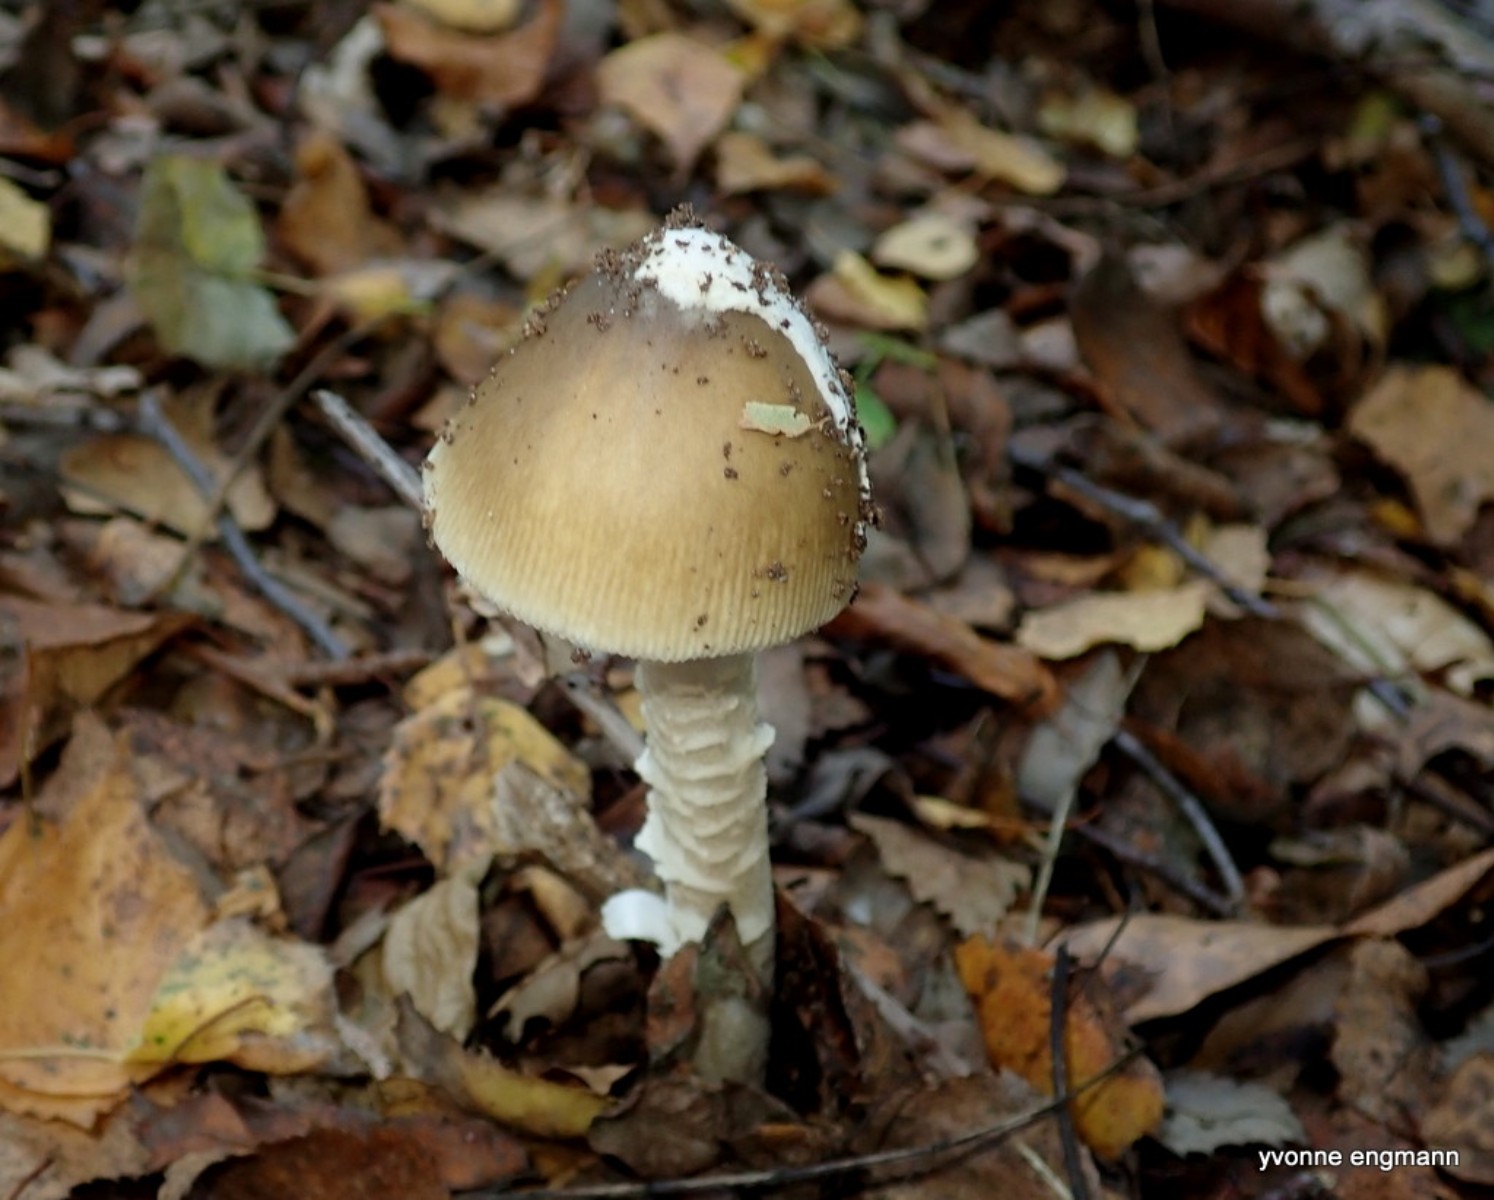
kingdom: Fungi
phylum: Basidiomycota
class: Agaricomycetes
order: Agaricales
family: Amanitaceae
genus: Amanita
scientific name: Amanita fulva
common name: brun kam-fluesvamp
